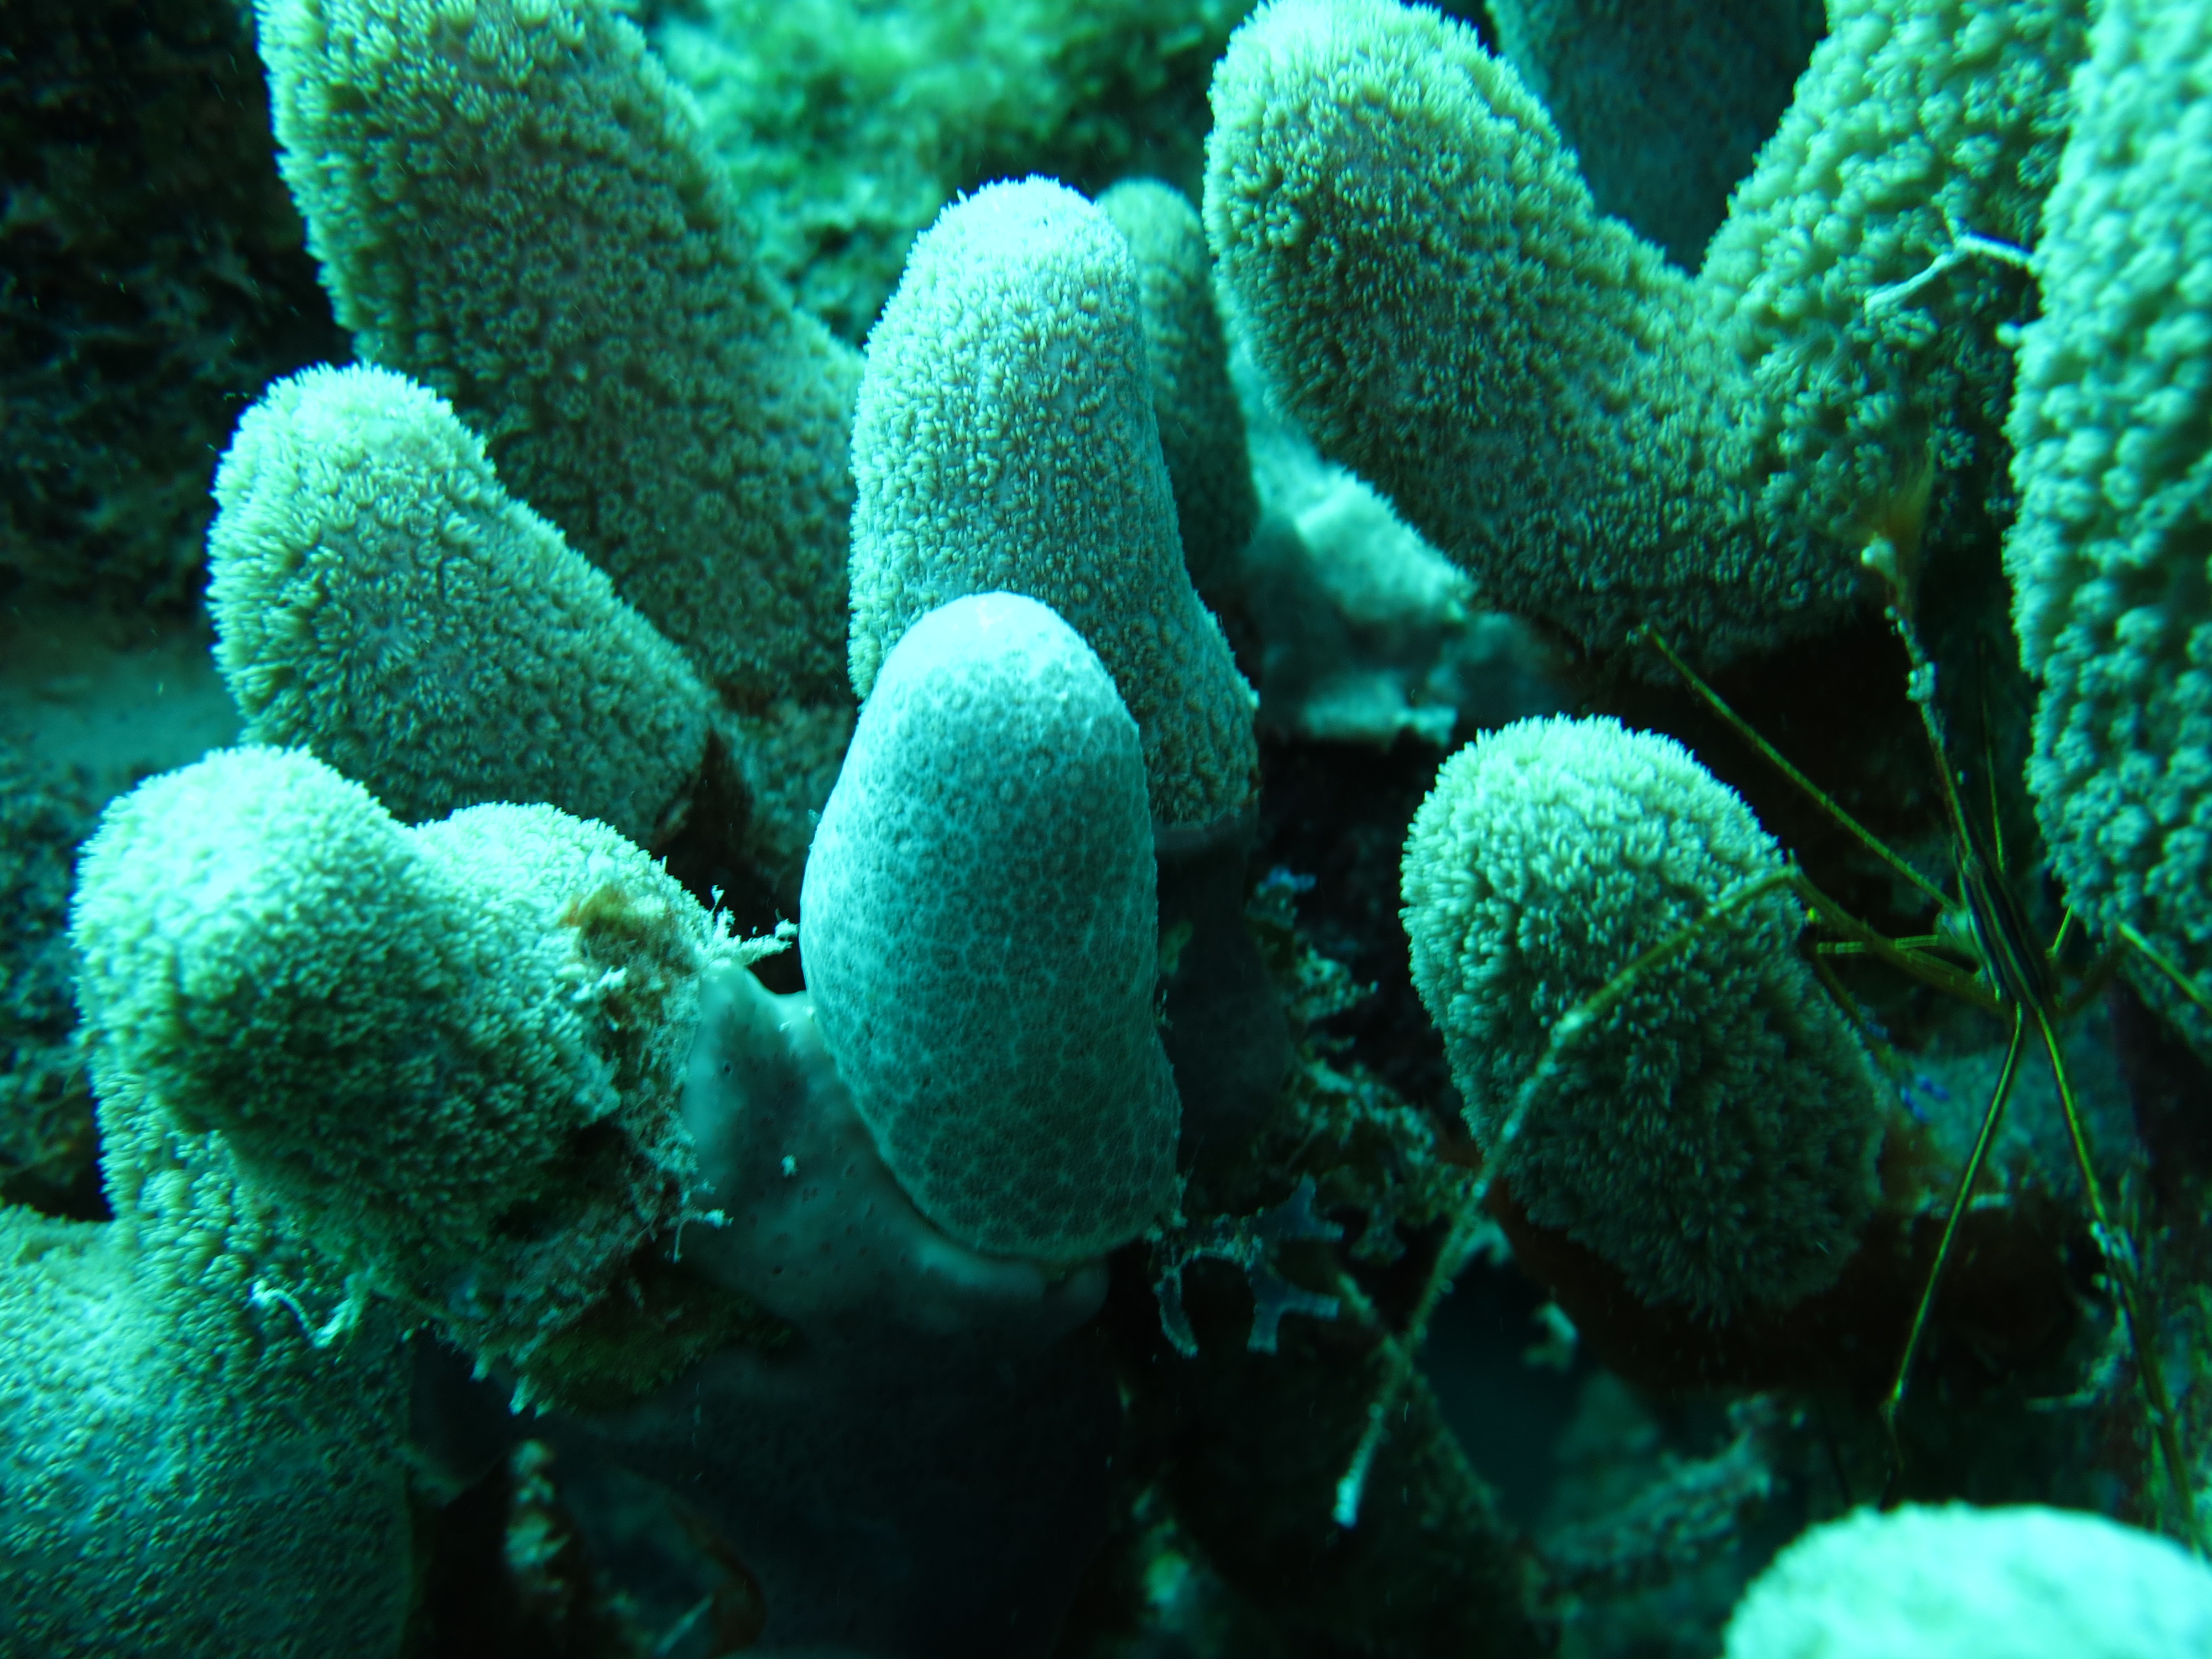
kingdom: Animalia
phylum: Cnidaria
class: Anthozoa
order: Scleractinia
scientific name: Scleractinia
